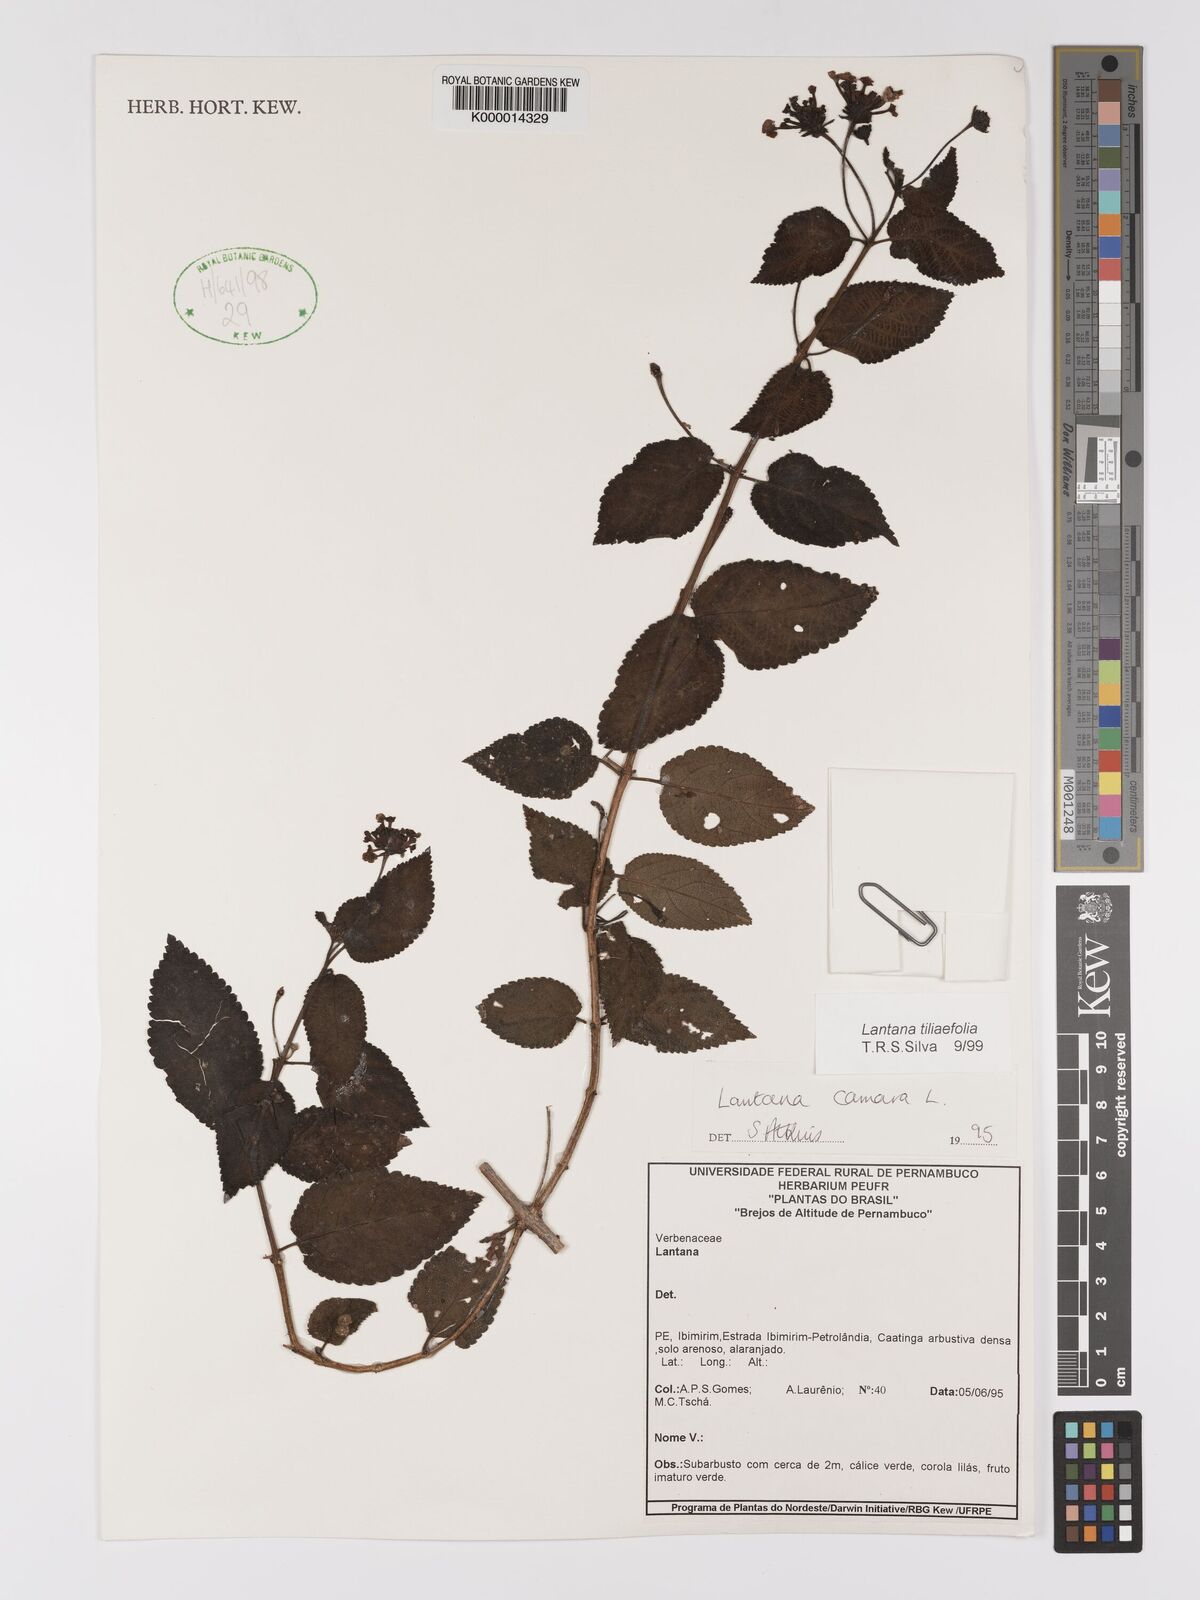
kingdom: Plantae
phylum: Tracheophyta
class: Magnoliopsida
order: Lamiales
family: Verbenaceae
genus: Lantana
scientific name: Lantana
